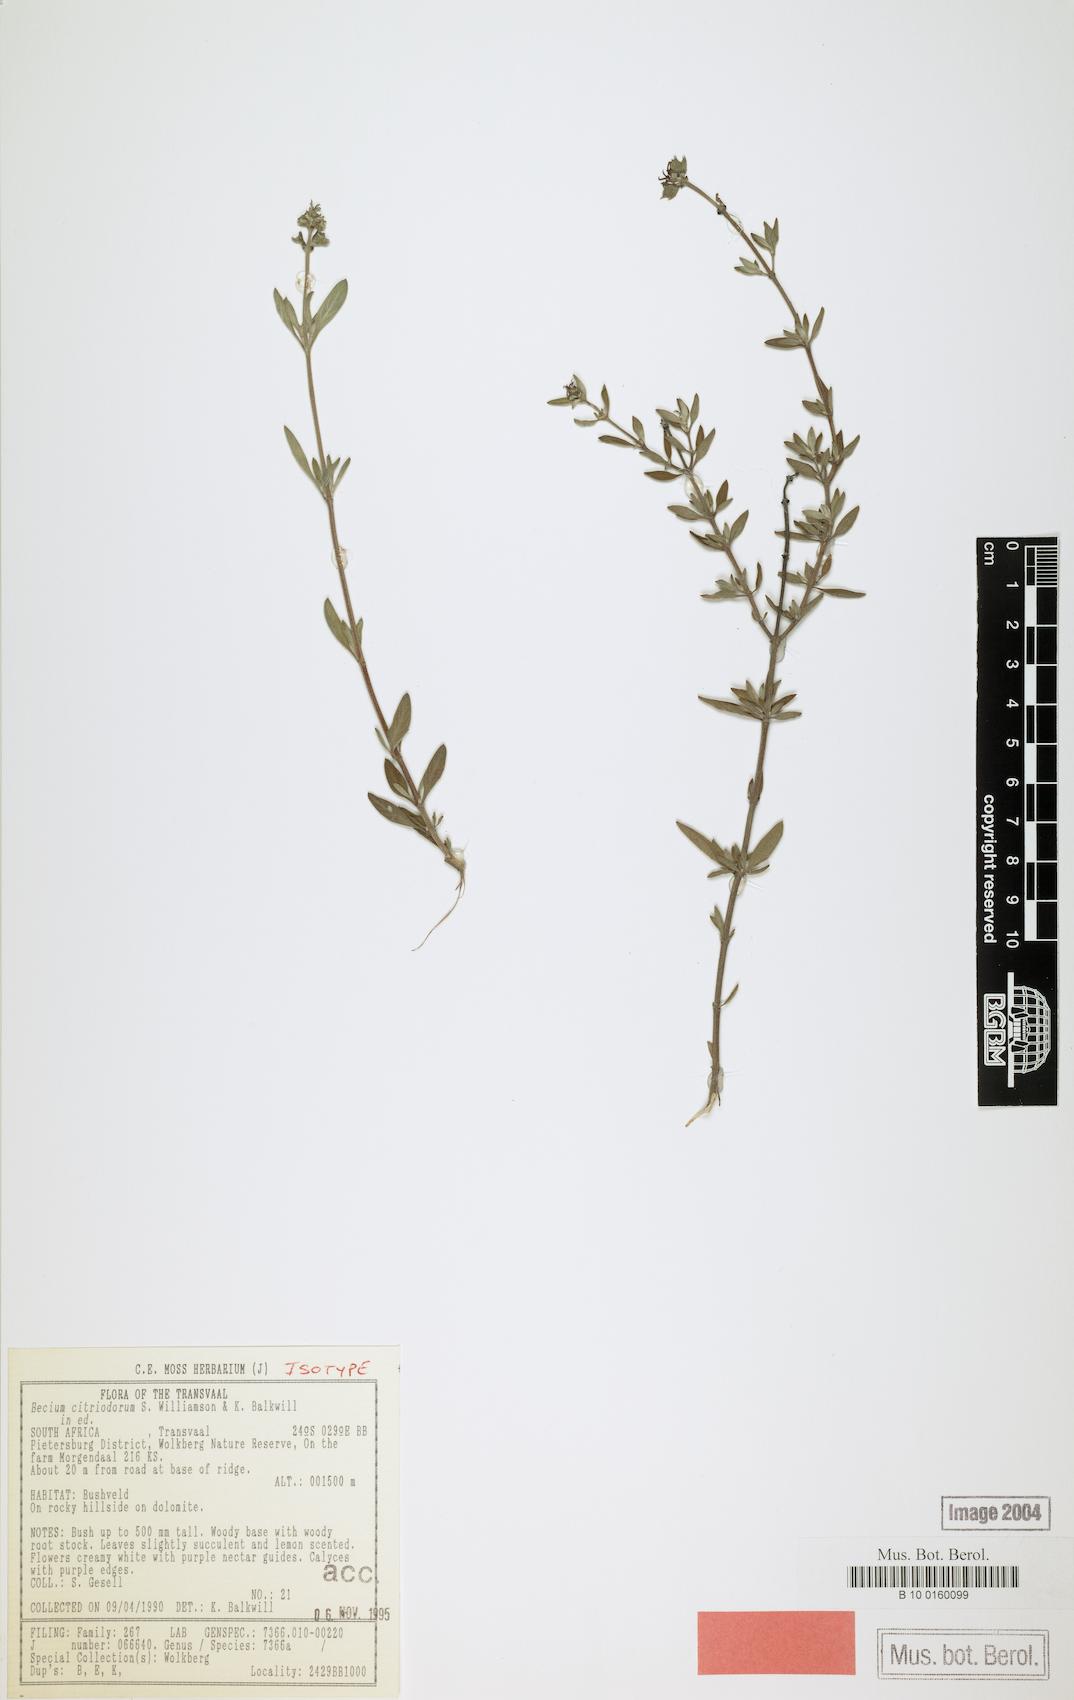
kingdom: Plantae
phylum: Tracheophyta
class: Magnoliopsida
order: Lamiales
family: Lamiaceae
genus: Ocimum
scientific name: Ocimum dolomiticola
